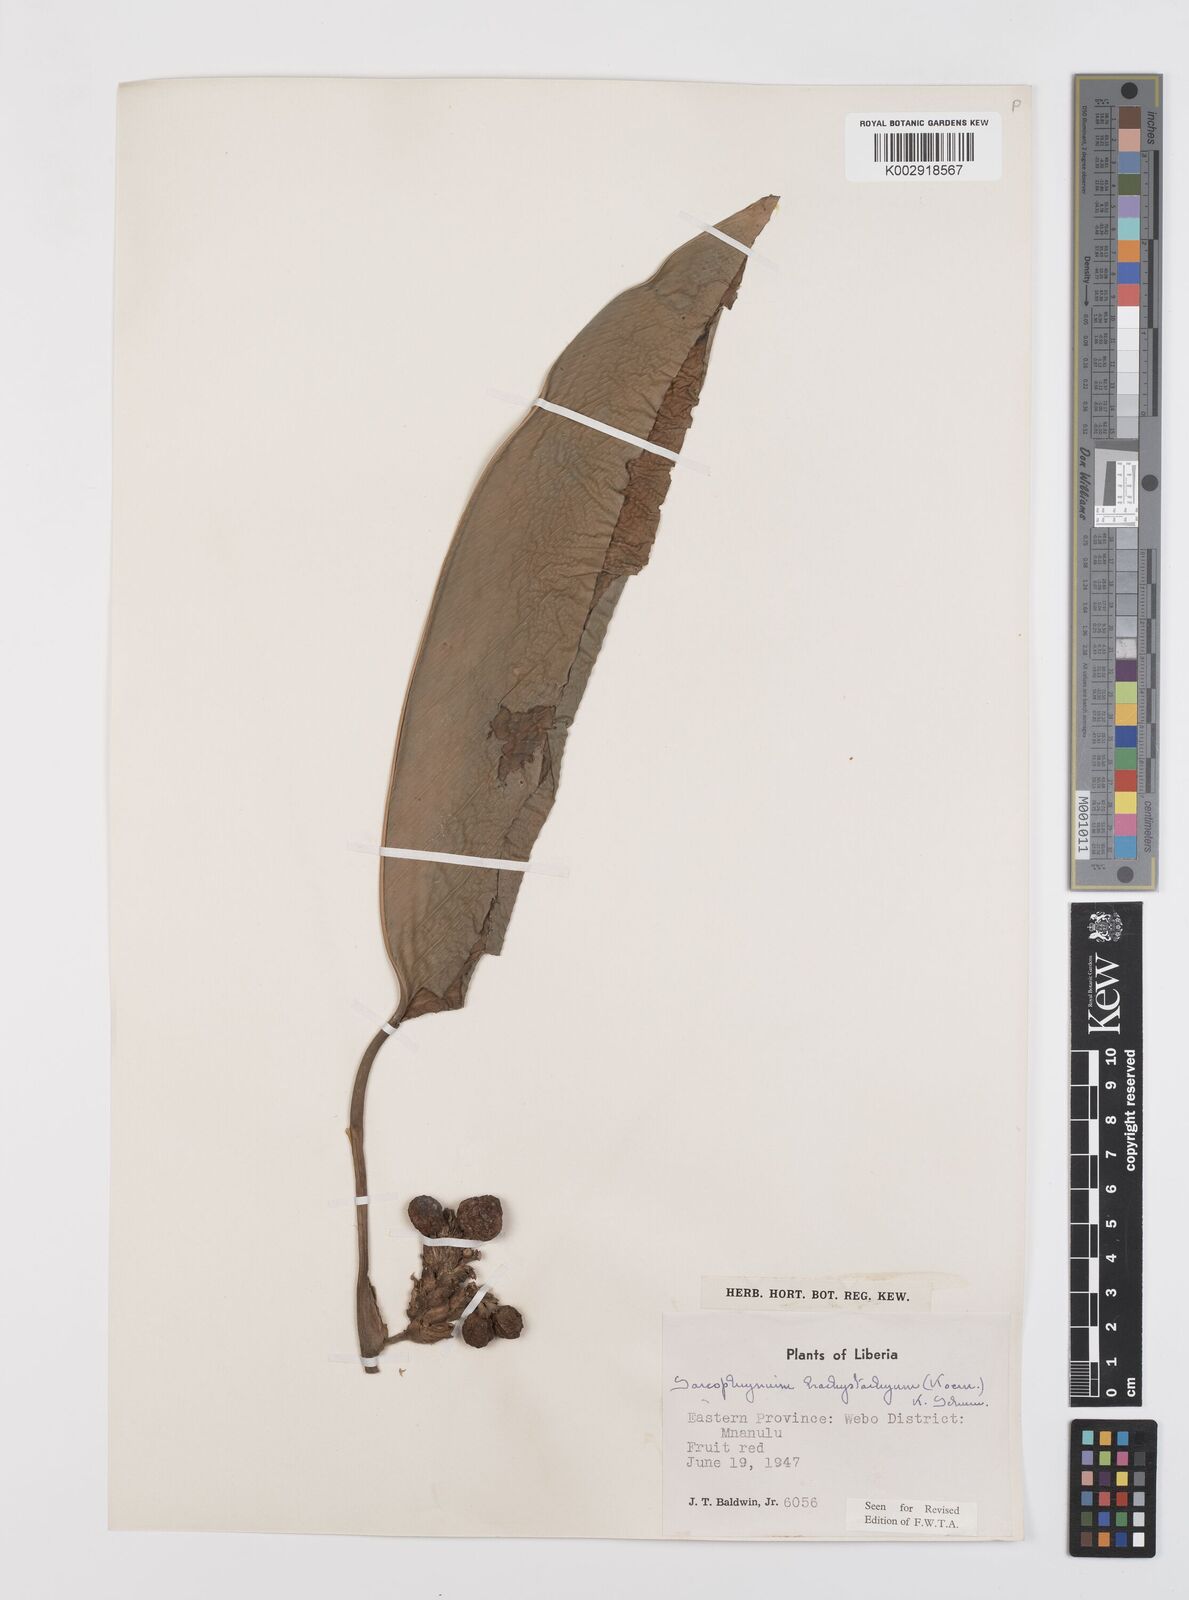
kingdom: Plantae
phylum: Tracheophyta
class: Liliopsida
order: Zingiberales
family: Marantaceae
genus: Sarcophrynium
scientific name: Sarcophrynium brachystachyum
